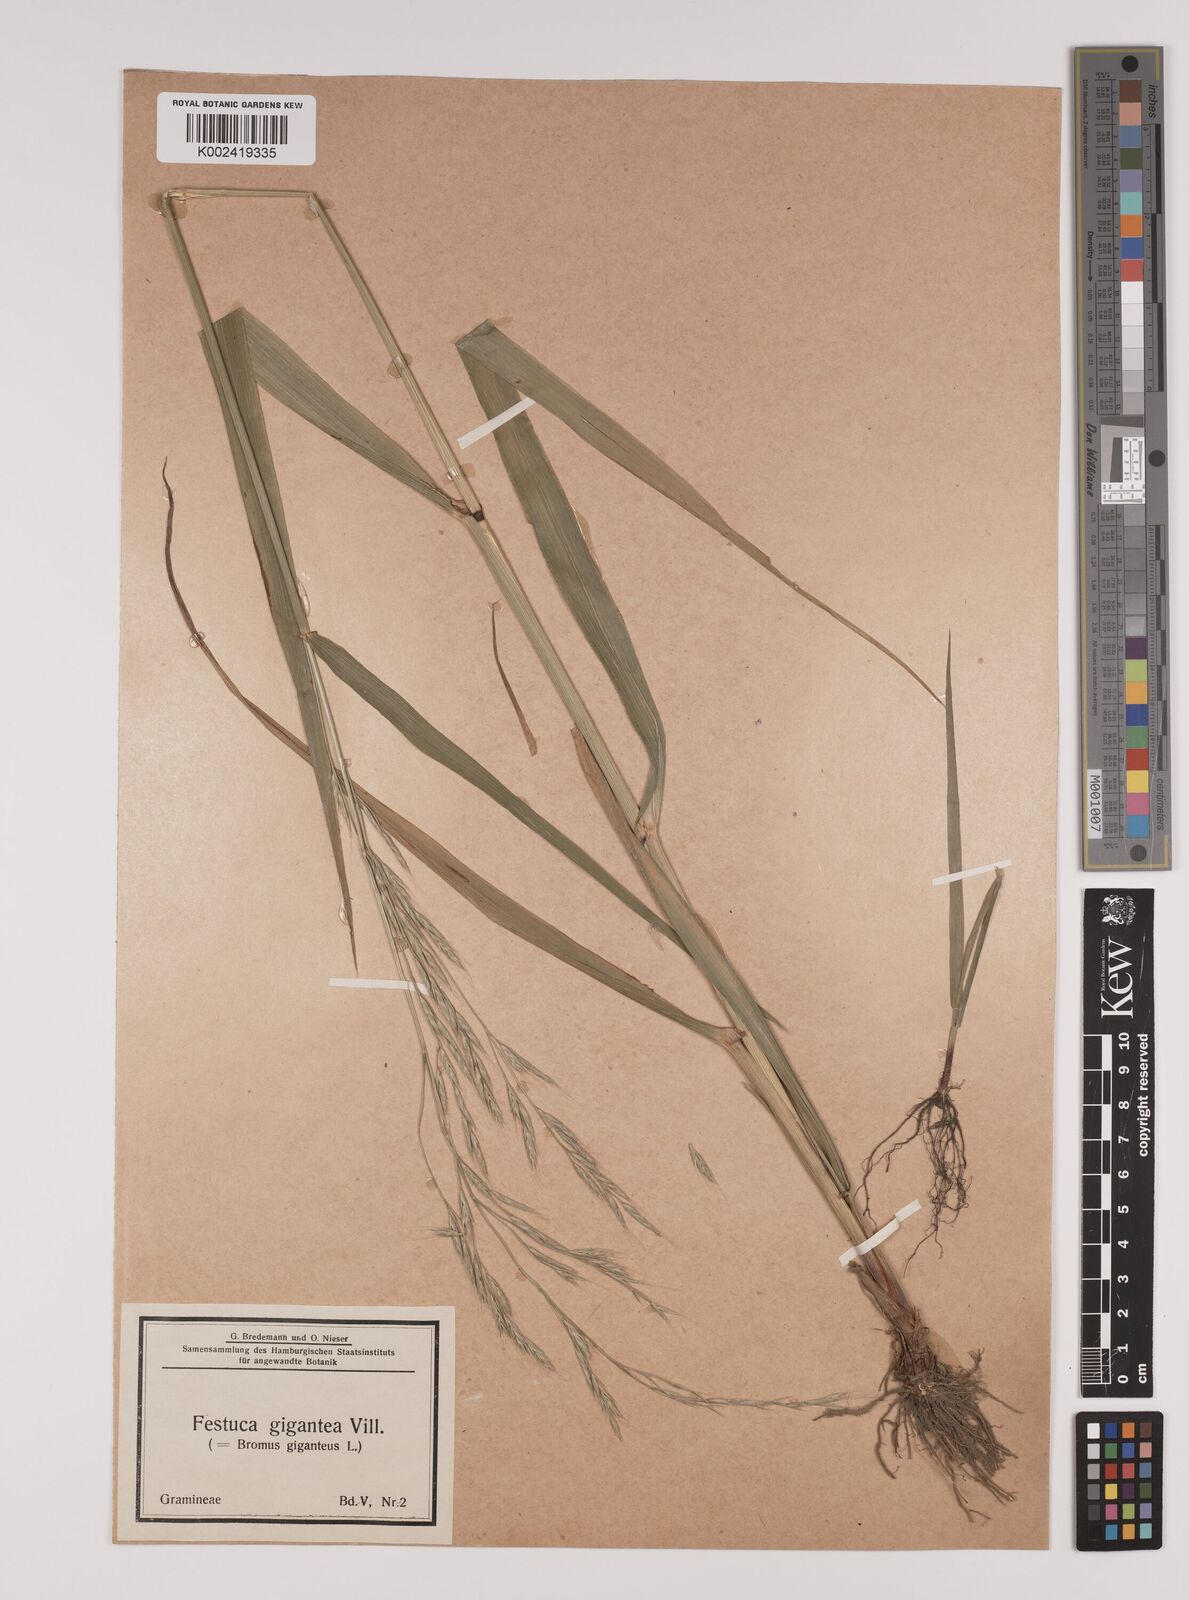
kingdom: Plantae
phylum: Tracheophyta
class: Liliopsida
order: Poales
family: Poaceae
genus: Lolium
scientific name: Lolium giganteum
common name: Giant fescue
